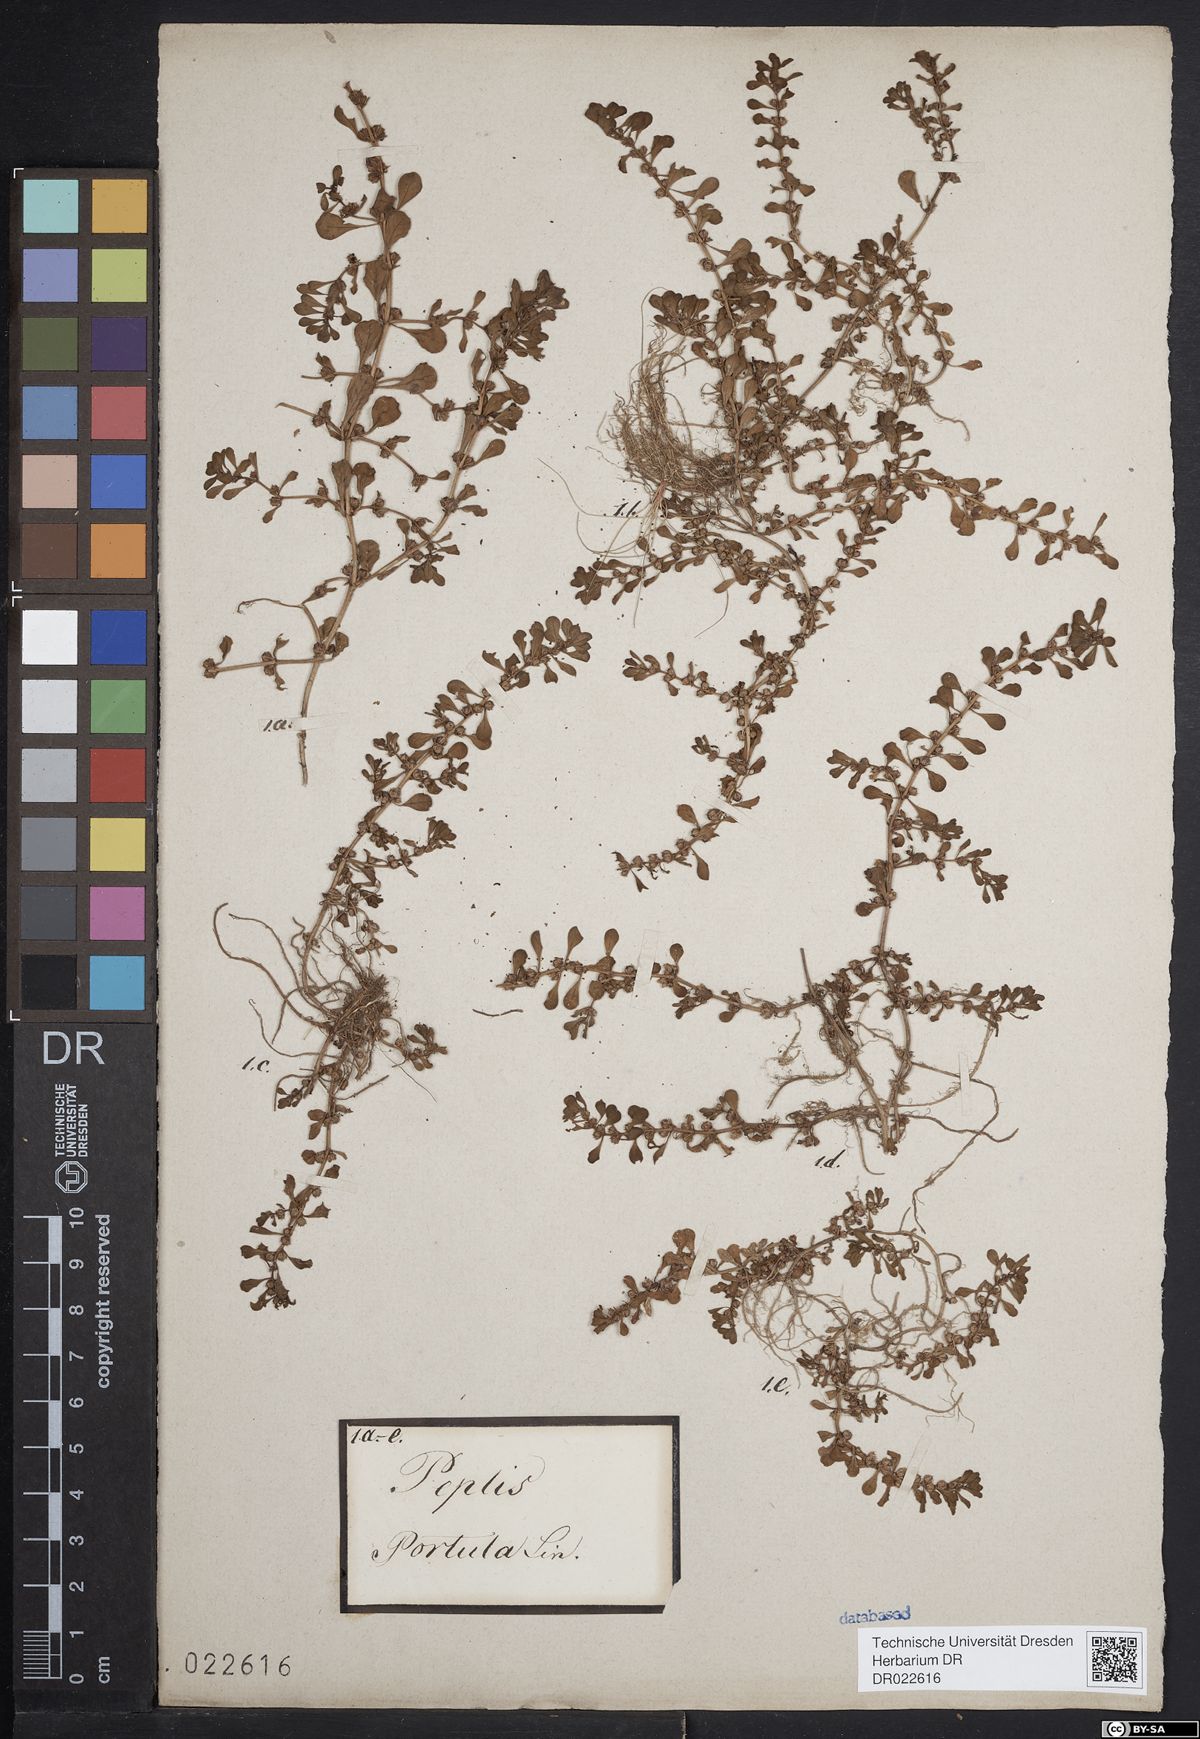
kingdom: Plantae
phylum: Tracheophyta
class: Magnoliopsida
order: Myrtales
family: Lythraceae
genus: Lythrum
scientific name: Lythrum portula
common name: Water purslane
